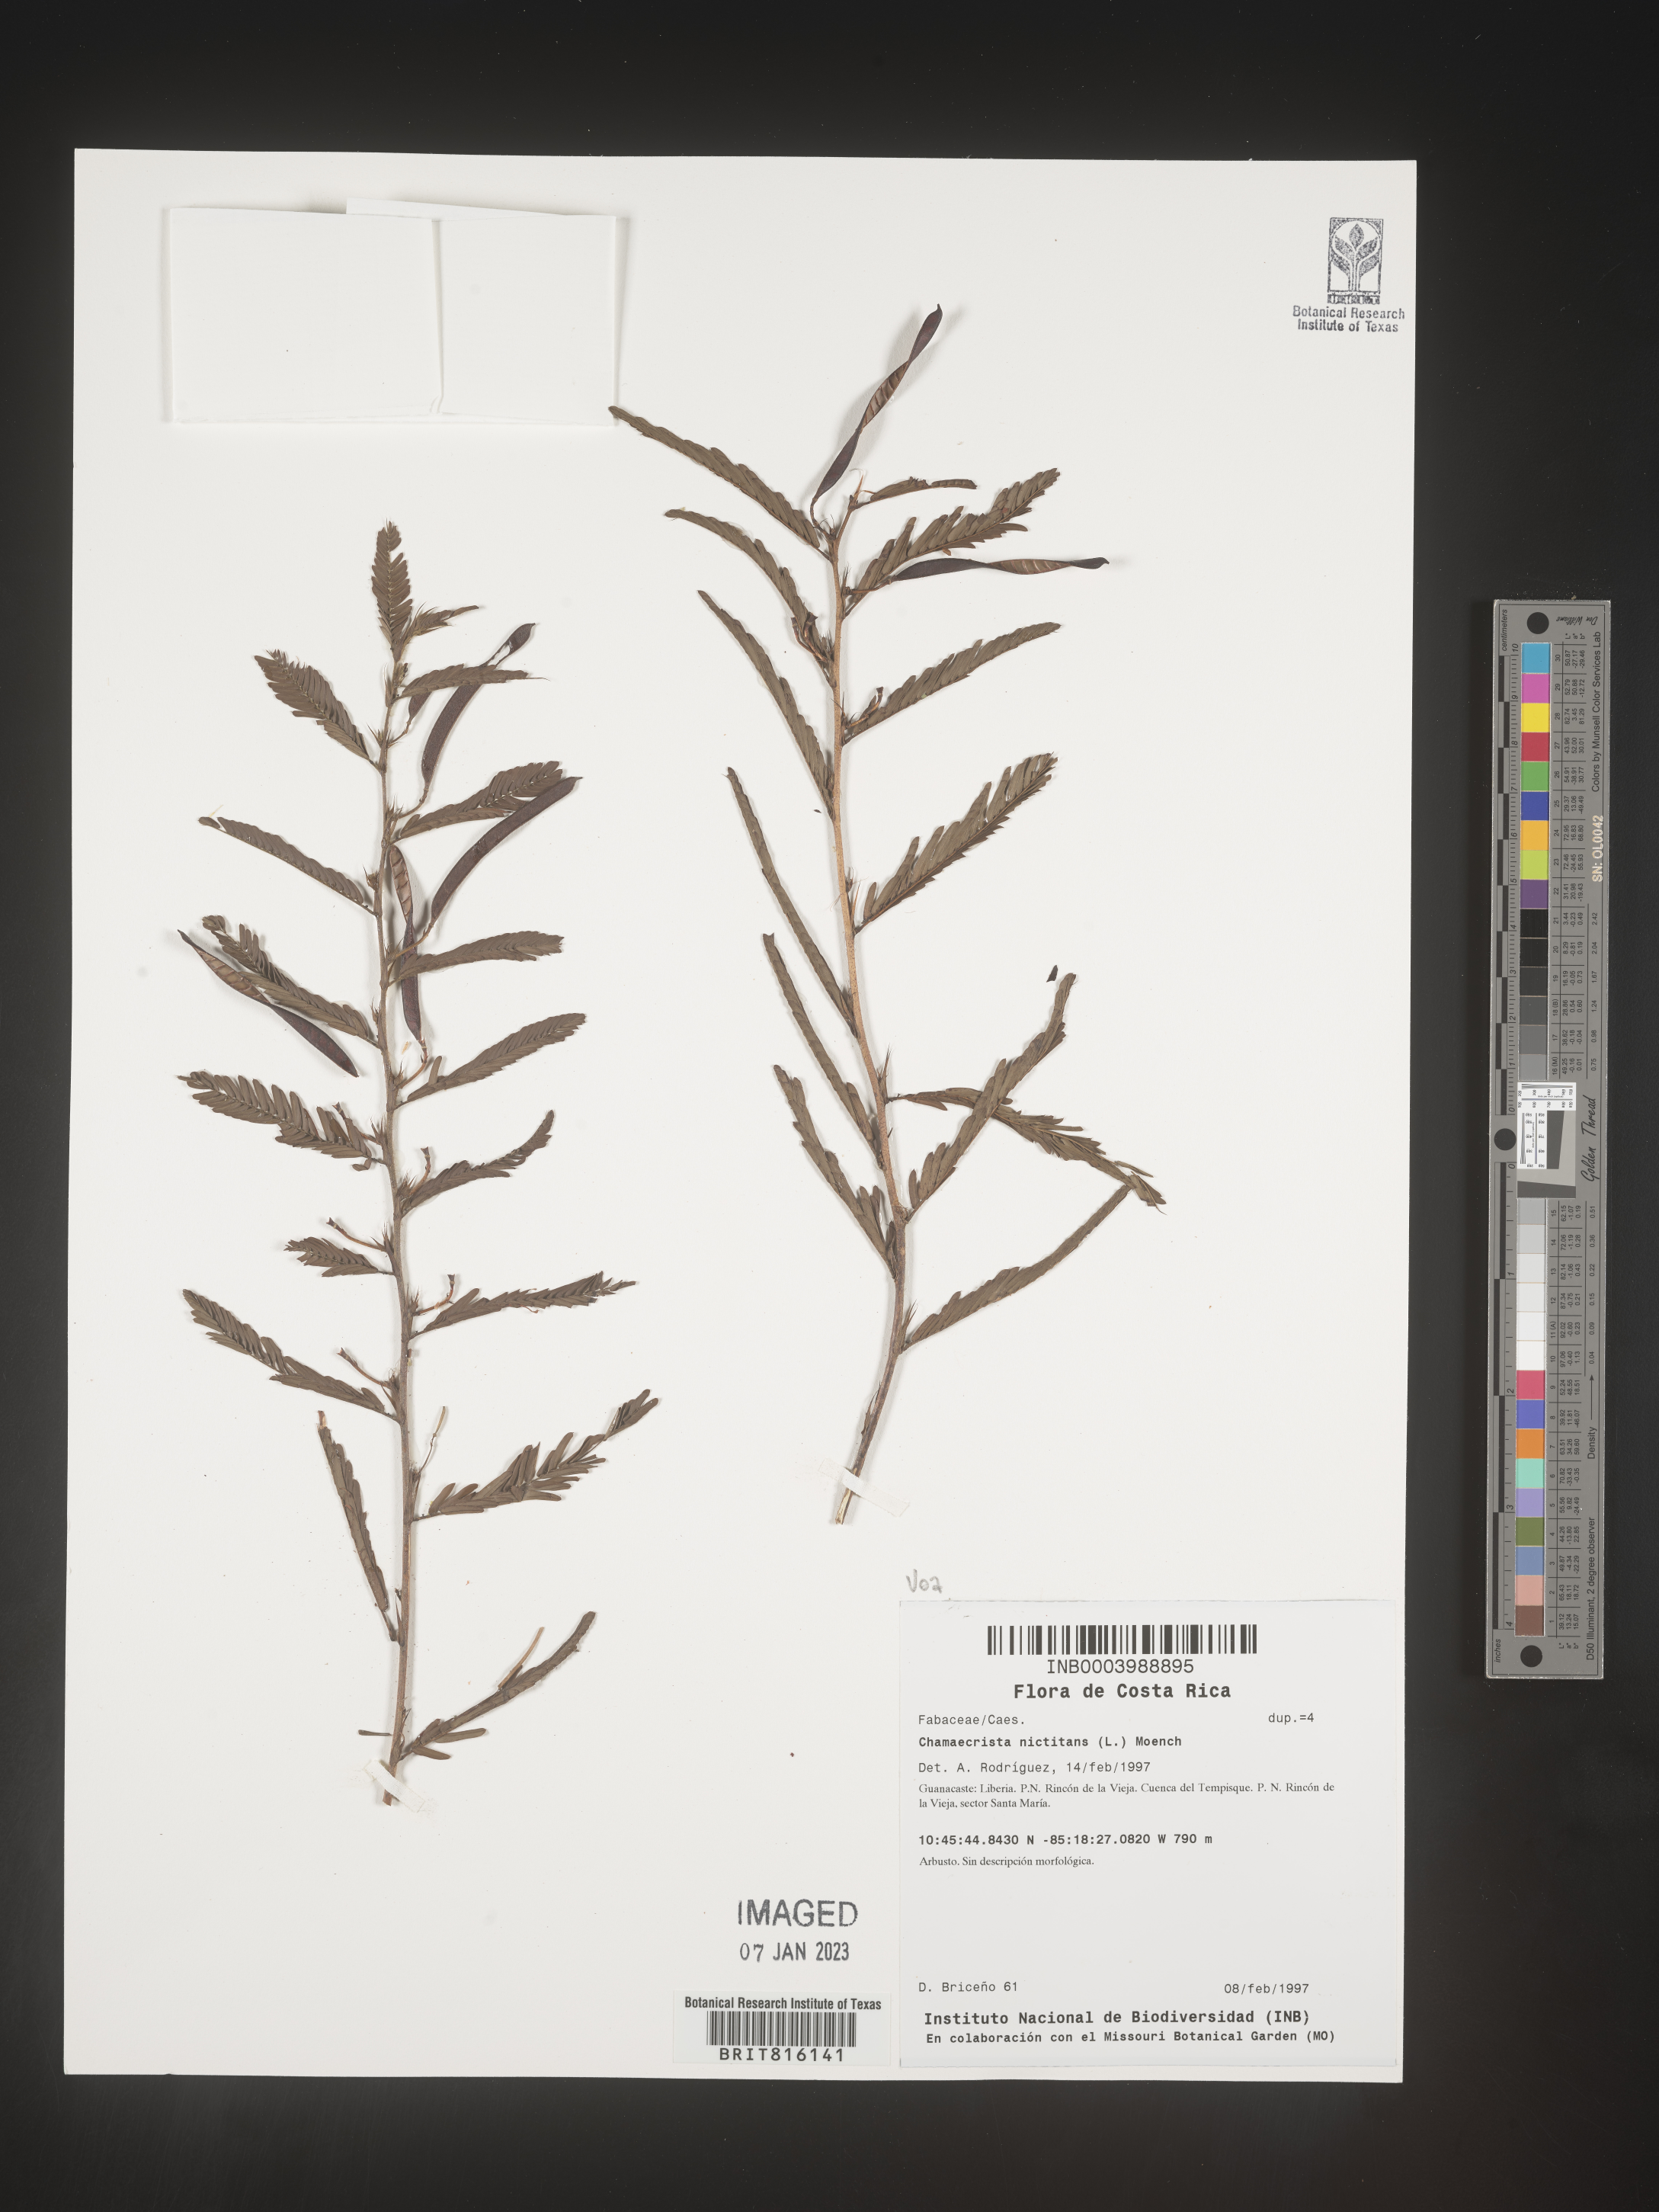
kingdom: Plantae
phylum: Tracheophyta
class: Magnoliopsida
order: Fabales
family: Fabaceae
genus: Chamaecrista
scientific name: Chamaecrista
